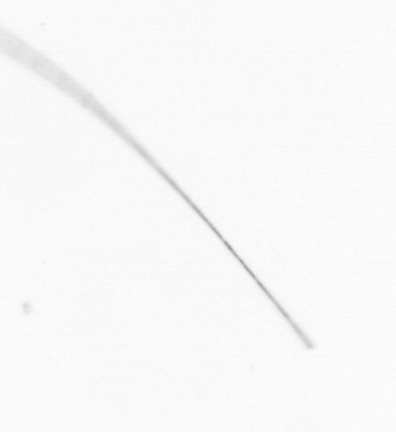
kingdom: Chromista
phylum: Ochrophyta
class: Bacillariophyceae
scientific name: Bacillariophyceae
